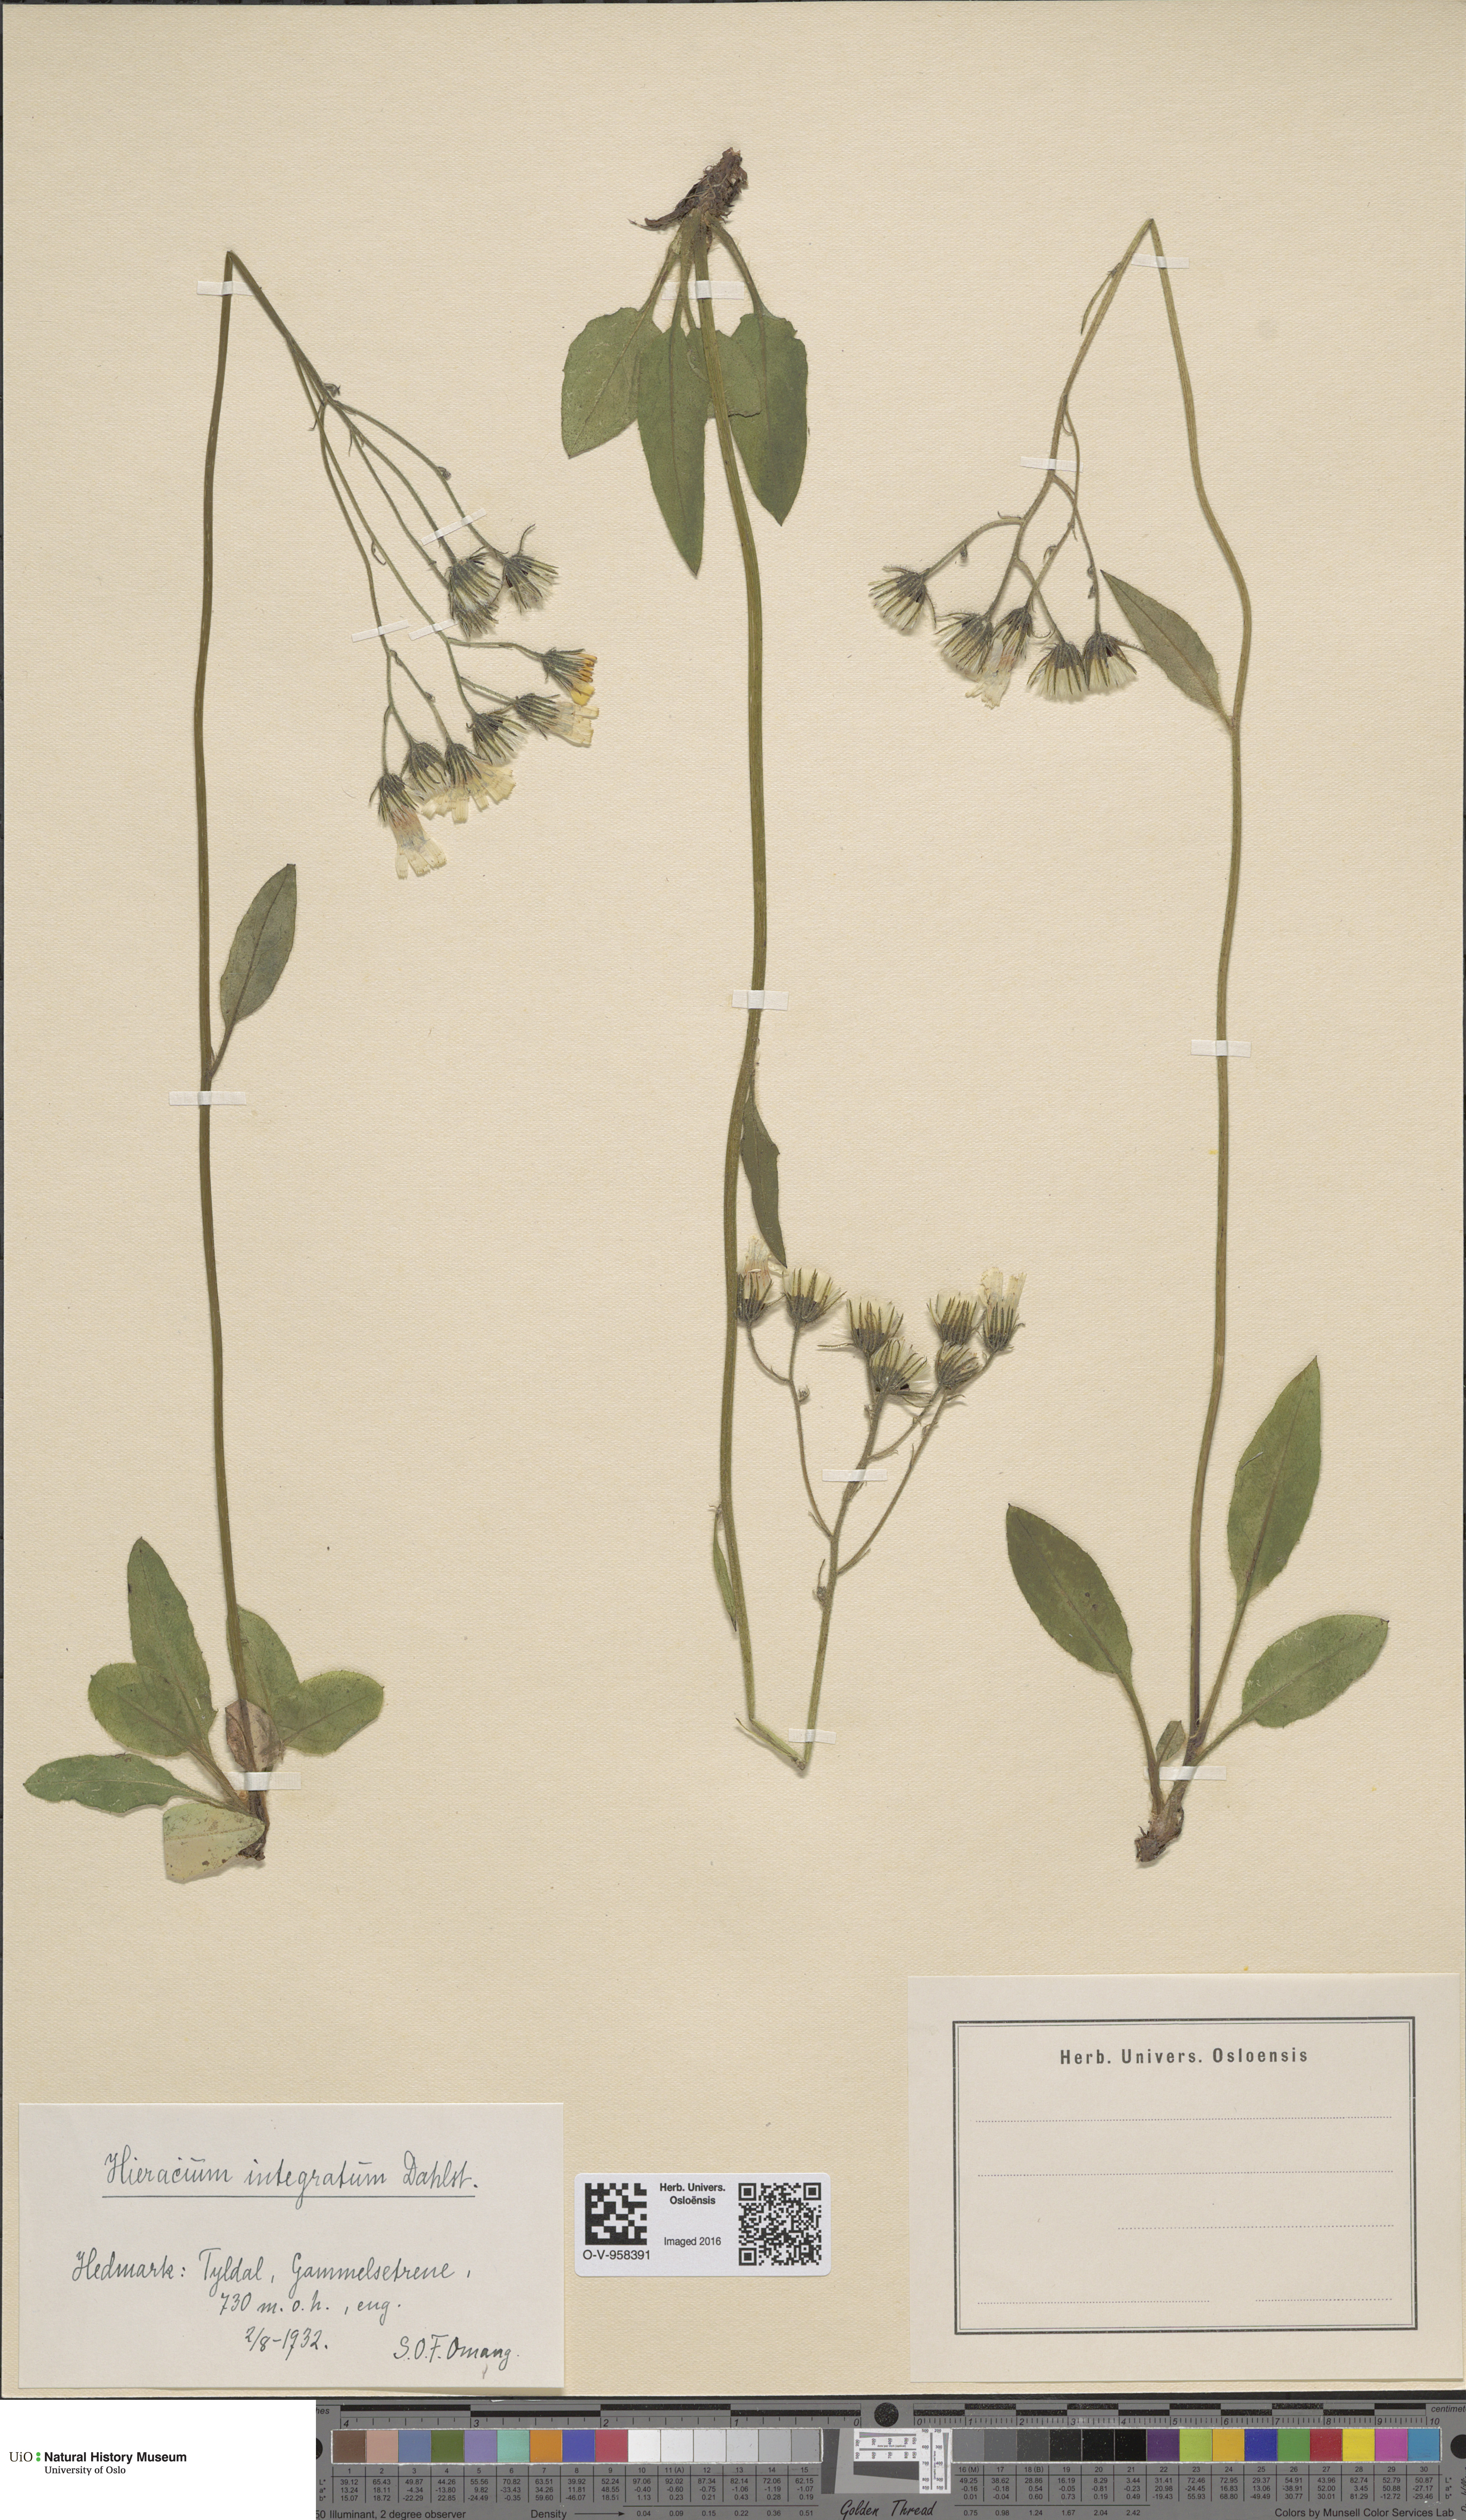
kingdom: Plantae
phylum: Tracheophyta
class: Magnoliopsida
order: Asterales
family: Asteraceae
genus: Hieracium
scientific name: Hieracium murorum
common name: Wall hawkweed
